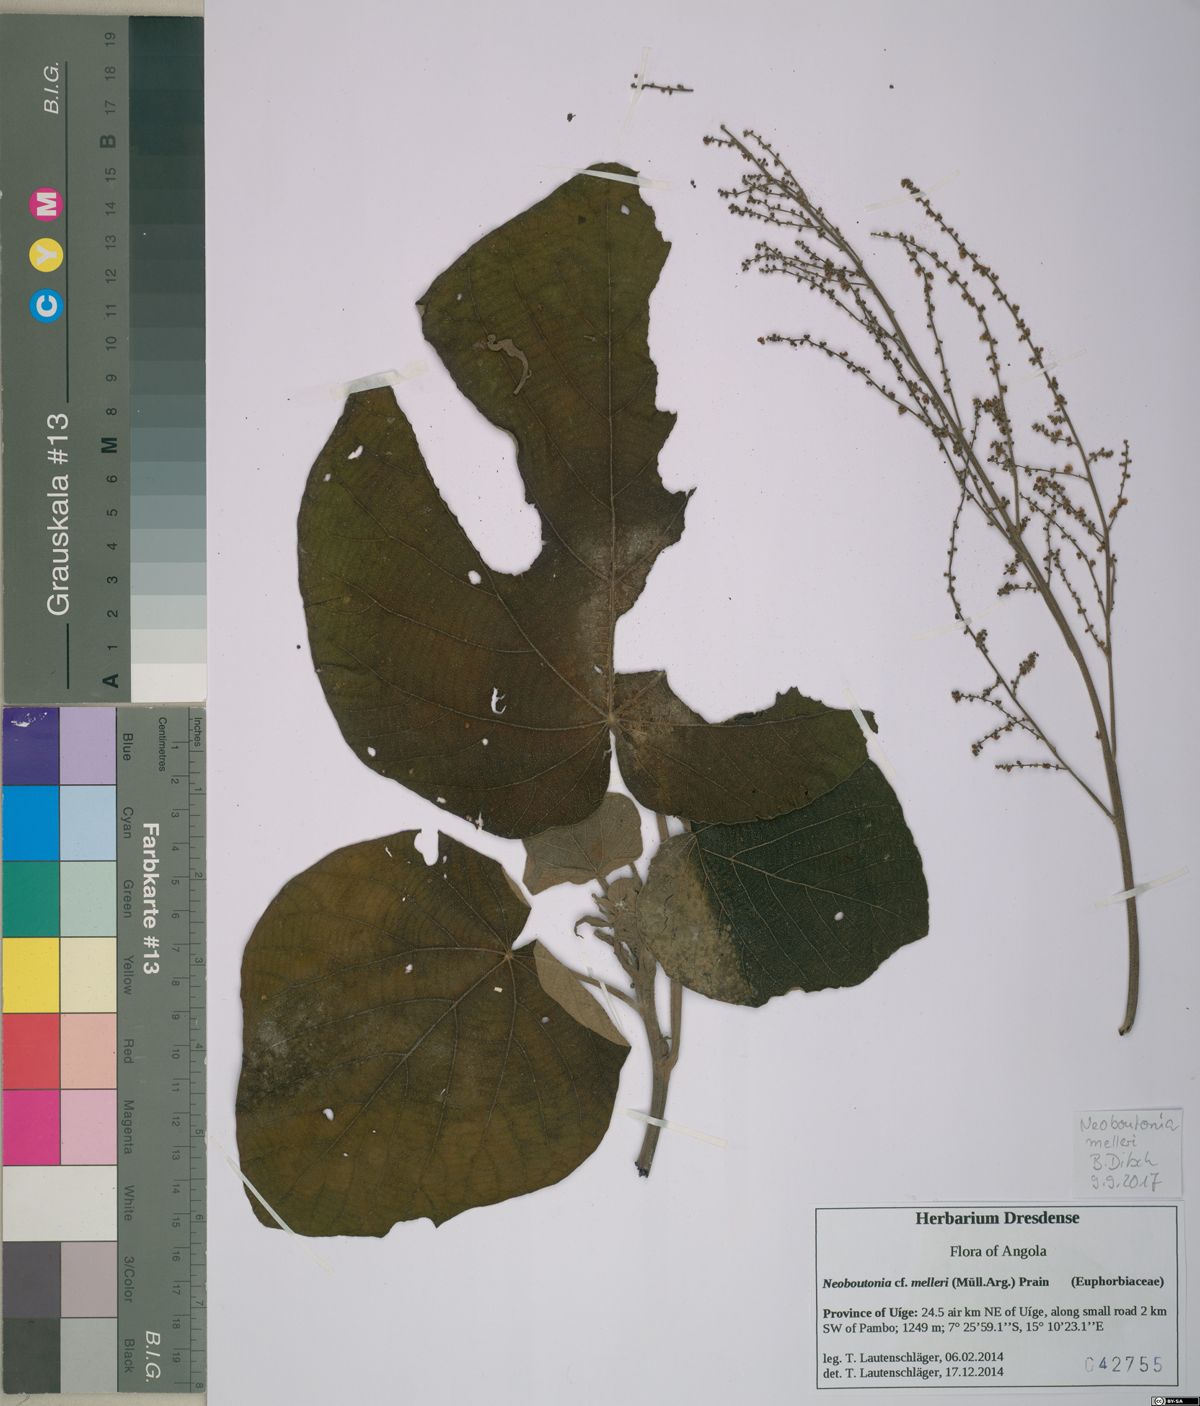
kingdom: Plantae
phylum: Tracheophyta
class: Magnoliopsida
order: Malpighiales
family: Euphorbiaceae
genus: Neoboutonia
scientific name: Neoboutonia melleri
